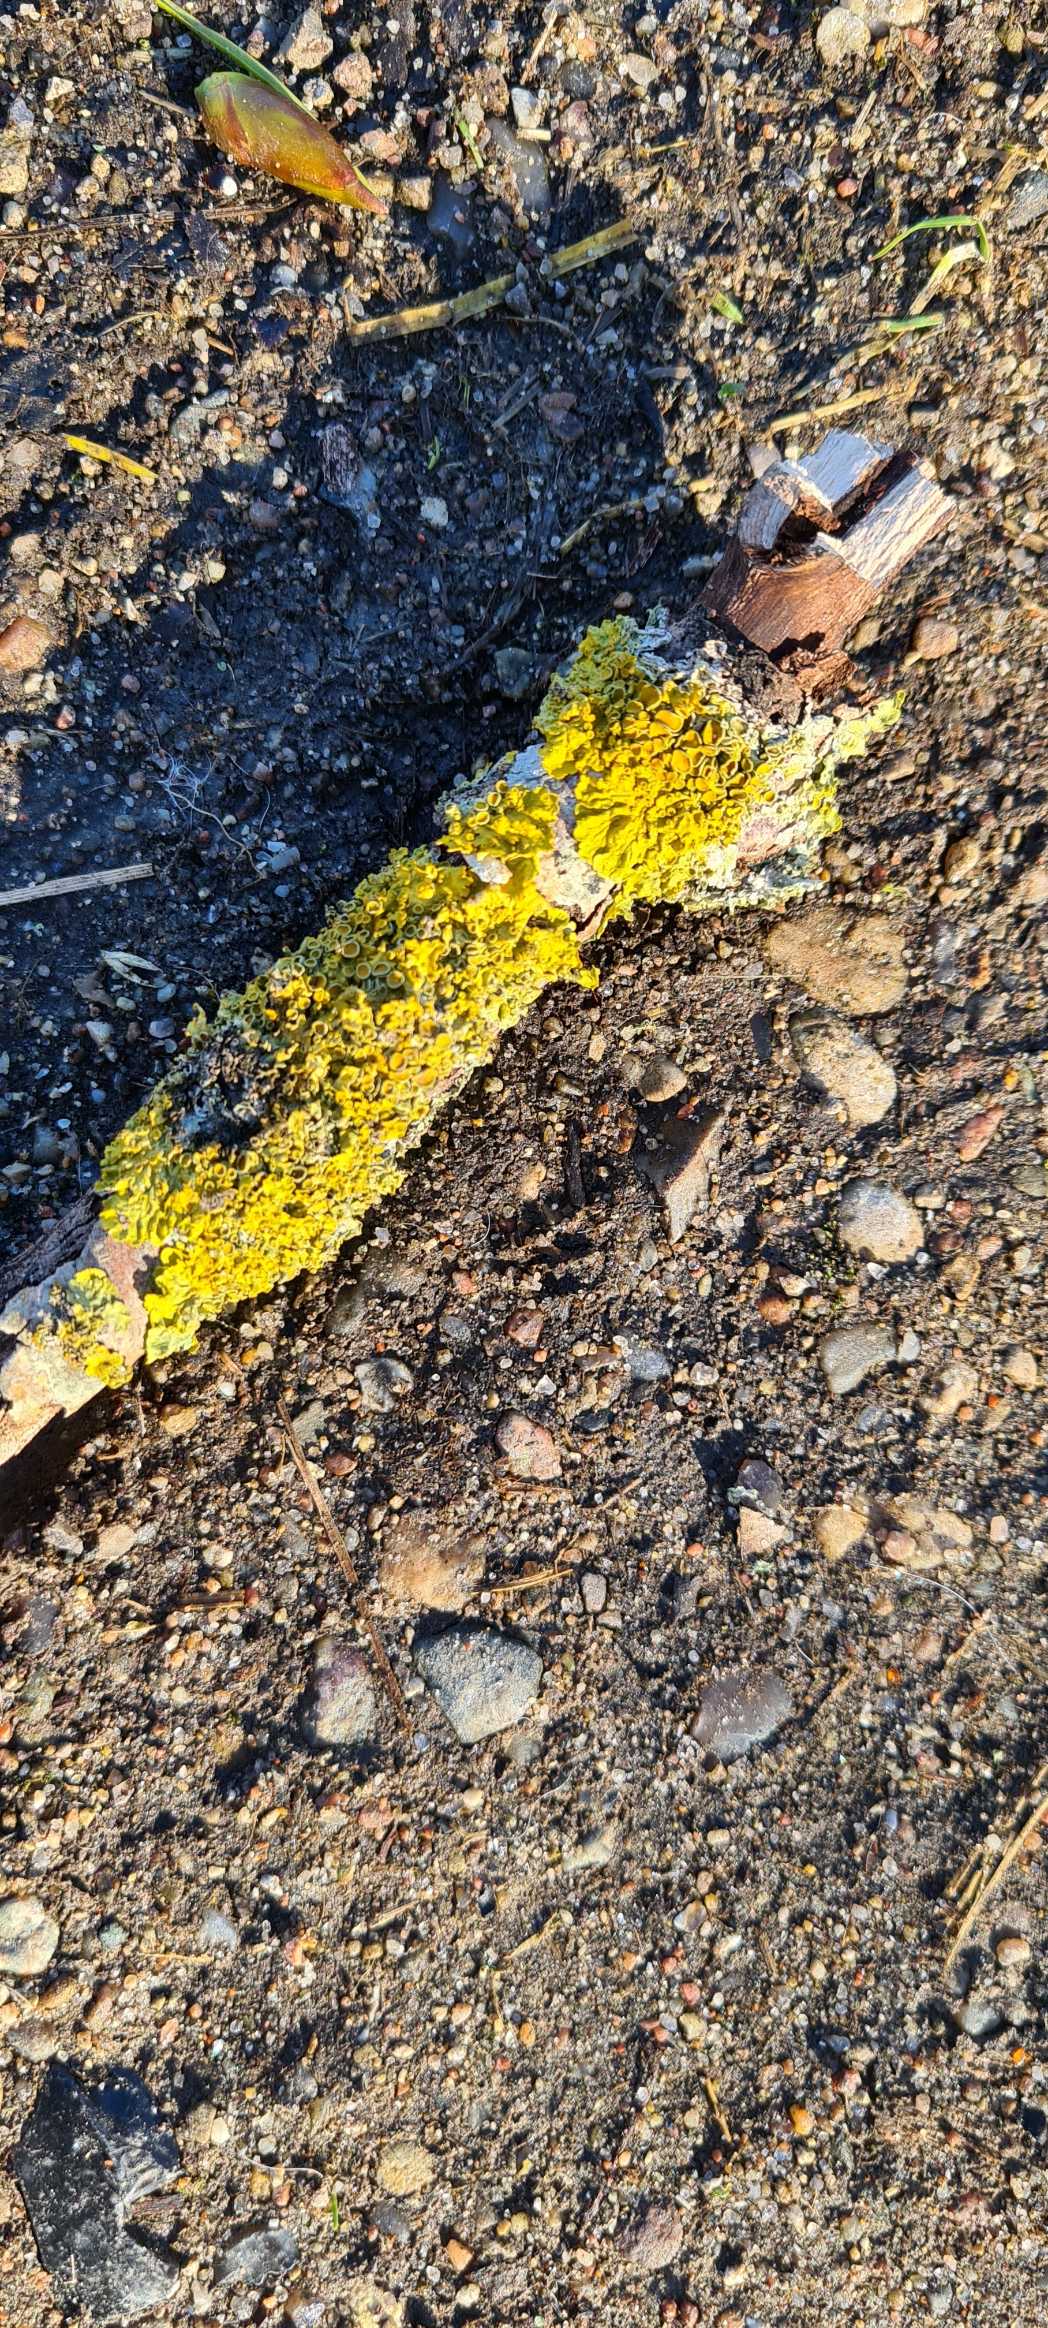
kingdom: Fungi
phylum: Ascomycota
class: Lecanoromycetes
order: Teloschistales
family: Teloschistaceae
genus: Xanthoria
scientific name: Xanthoria parietina
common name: Almindelig væggelav
